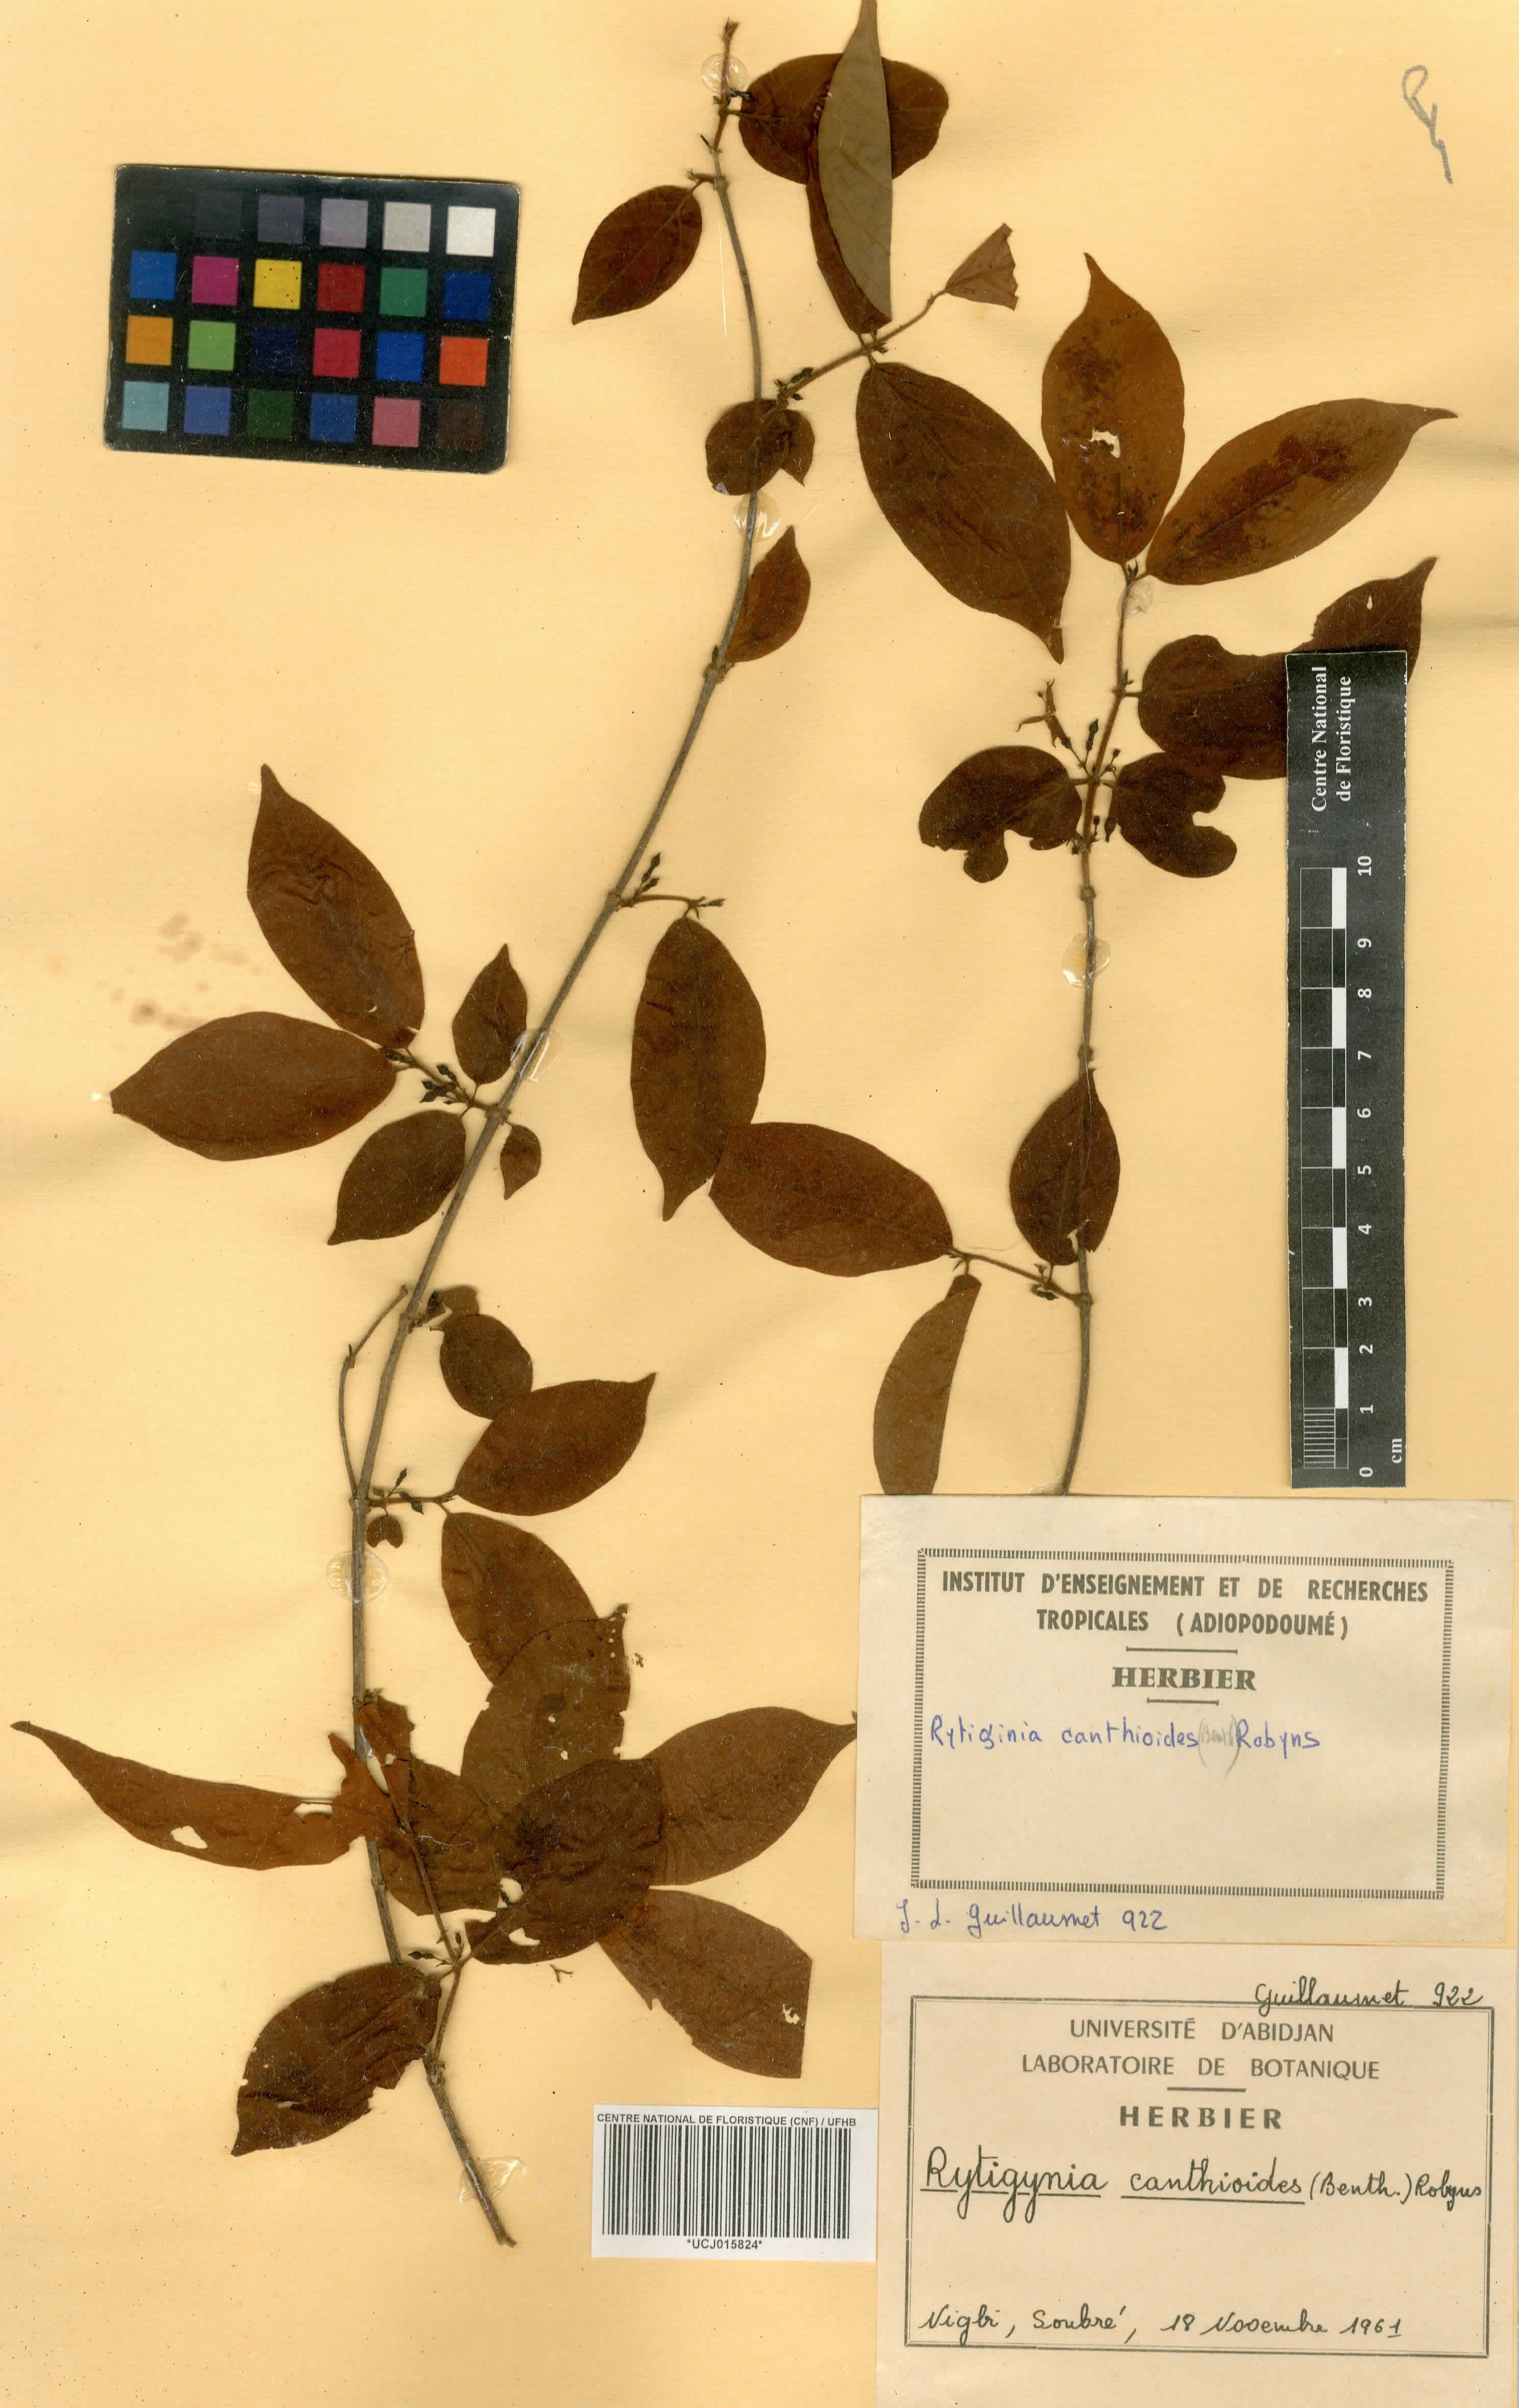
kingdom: Plantae
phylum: Tracheophyta
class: Magnoliopsida
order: Gentianales
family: Rubiaceae
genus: Rytigynia
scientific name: Rytigynia canthioides
